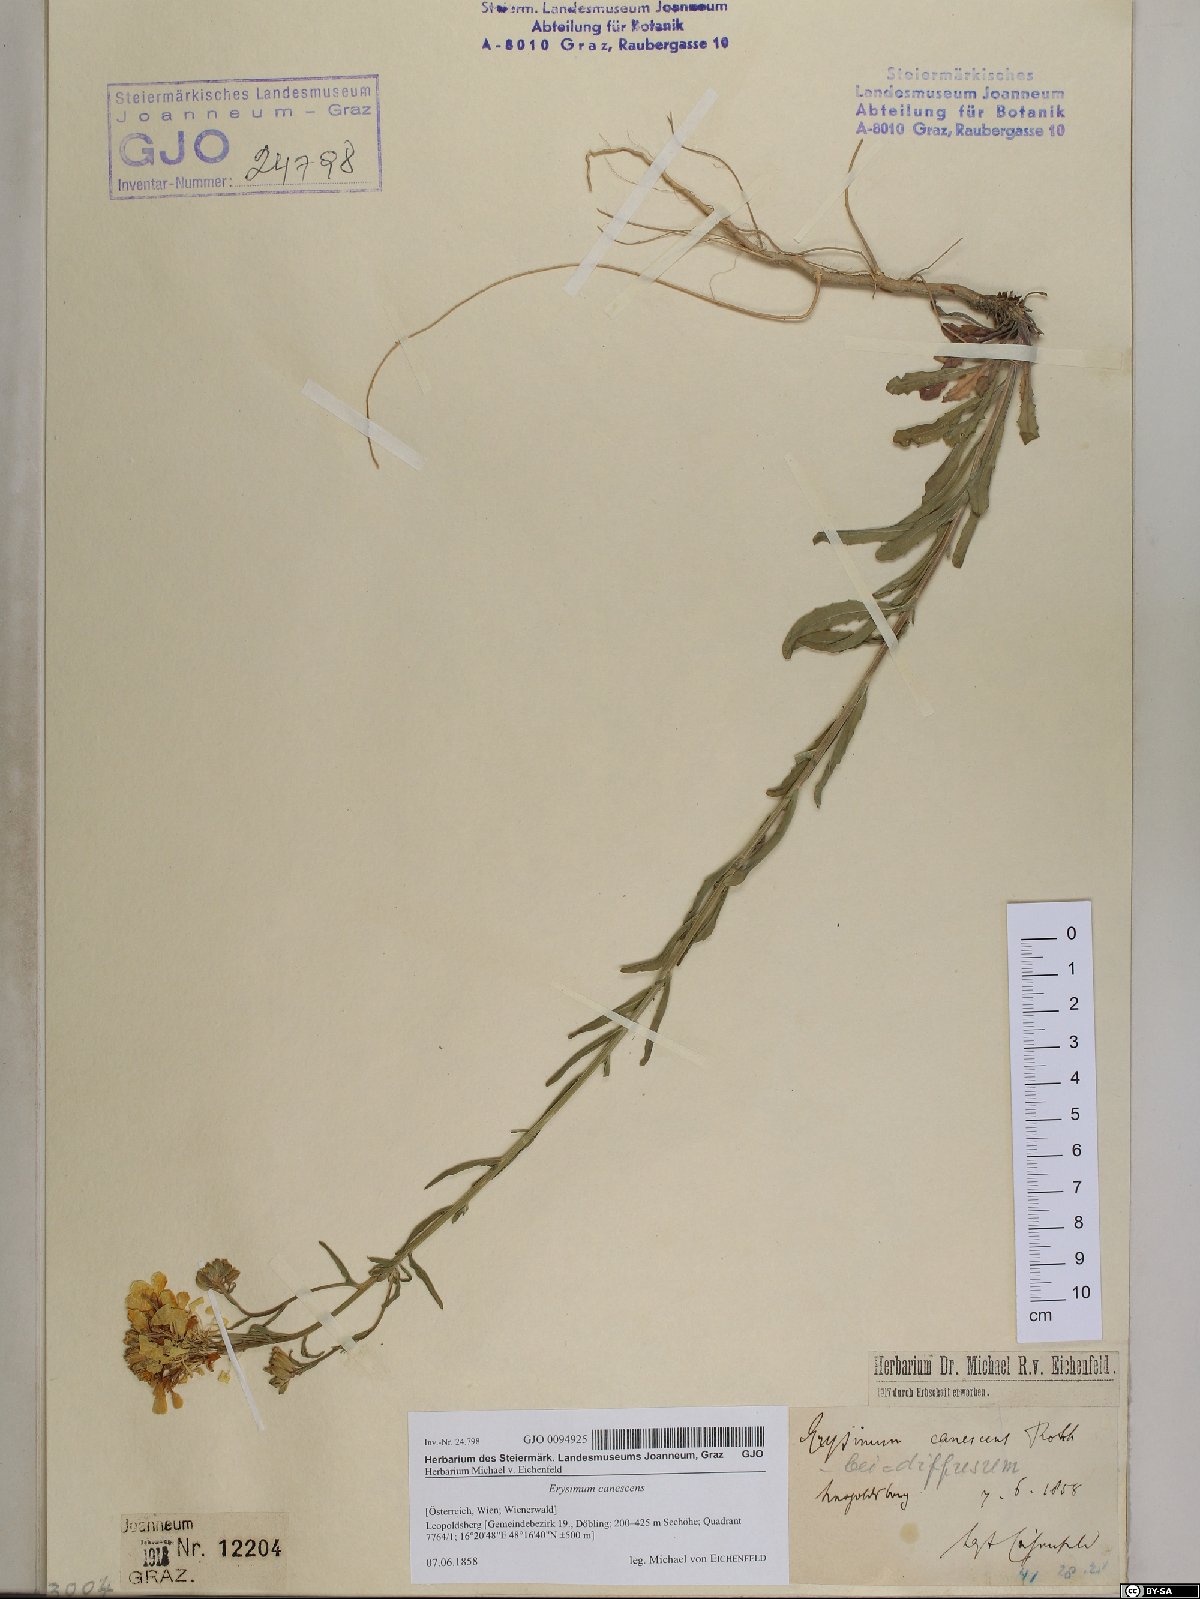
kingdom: Plantae
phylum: Tracheophyta
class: Magnoliopsida
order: Brassicales
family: Brassicaceae
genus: Erysimum
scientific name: Erysimum canescens
